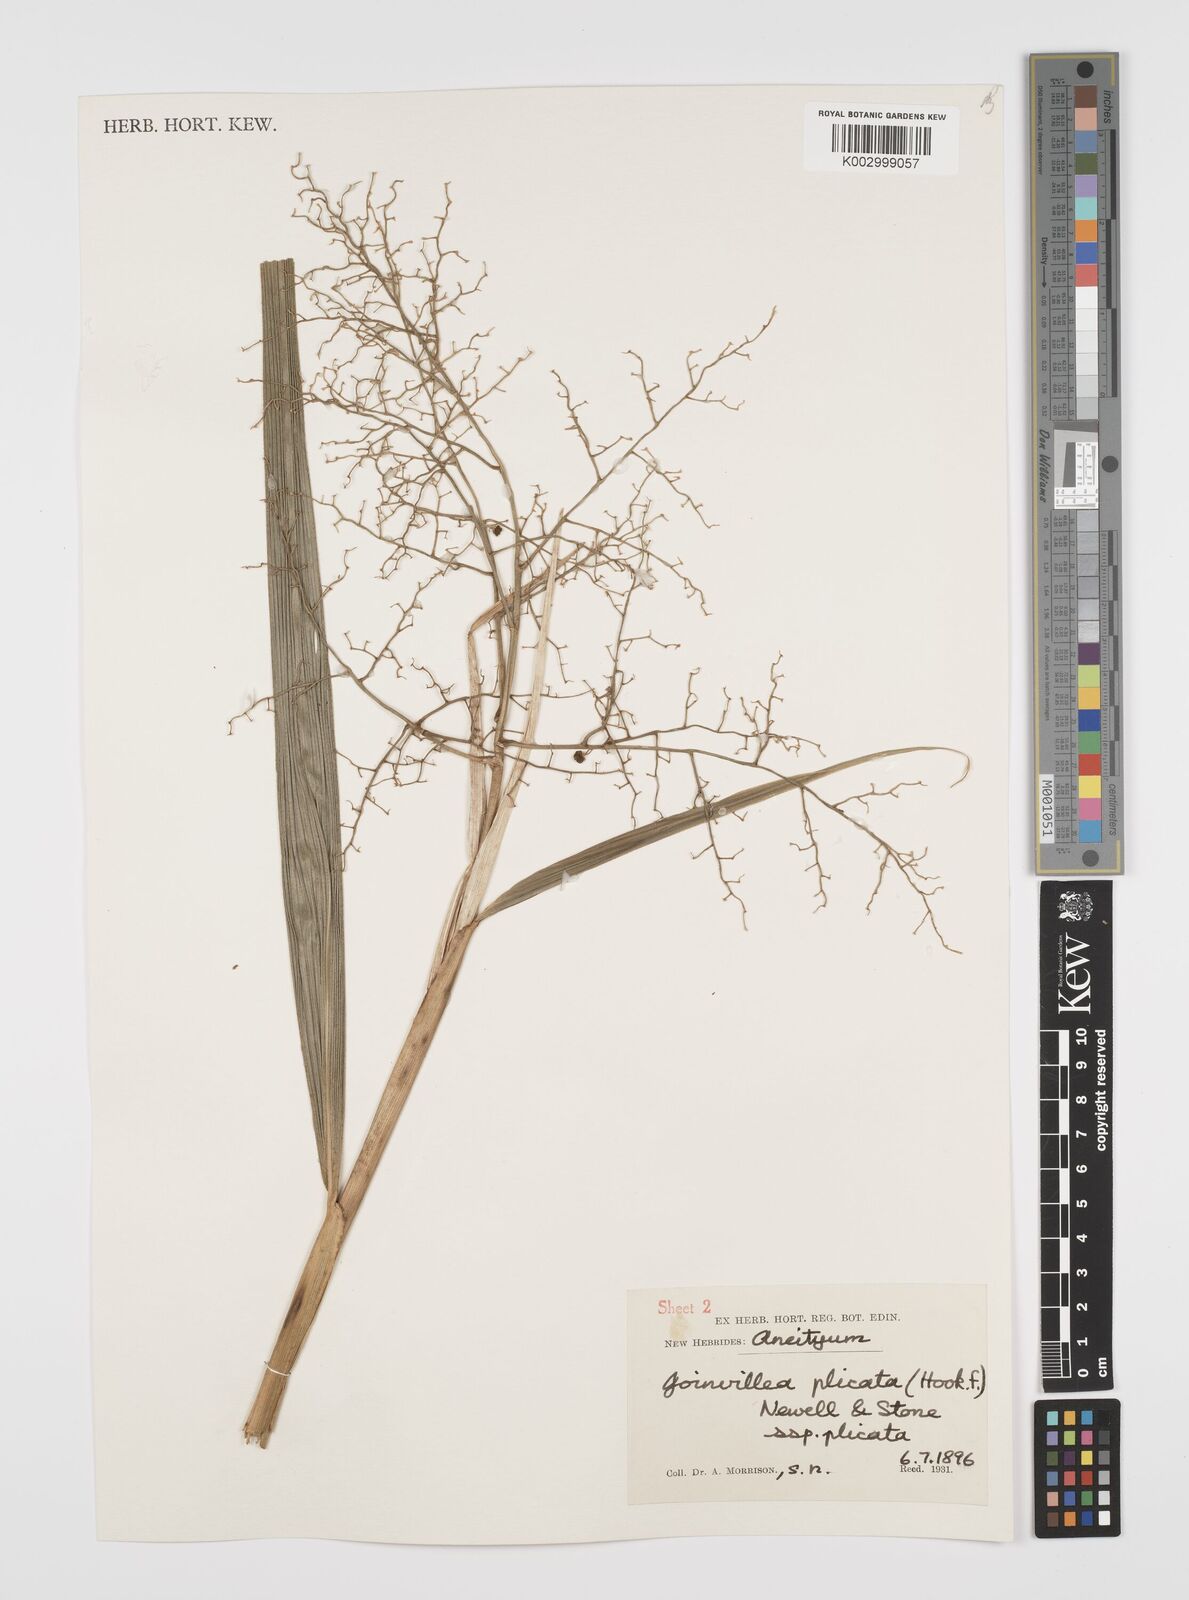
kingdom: Plantae
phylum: Tracheophyta
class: Liliopsida
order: Poales
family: Joinvilleaceae
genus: Joinvillea
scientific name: Joinvillea plicata
